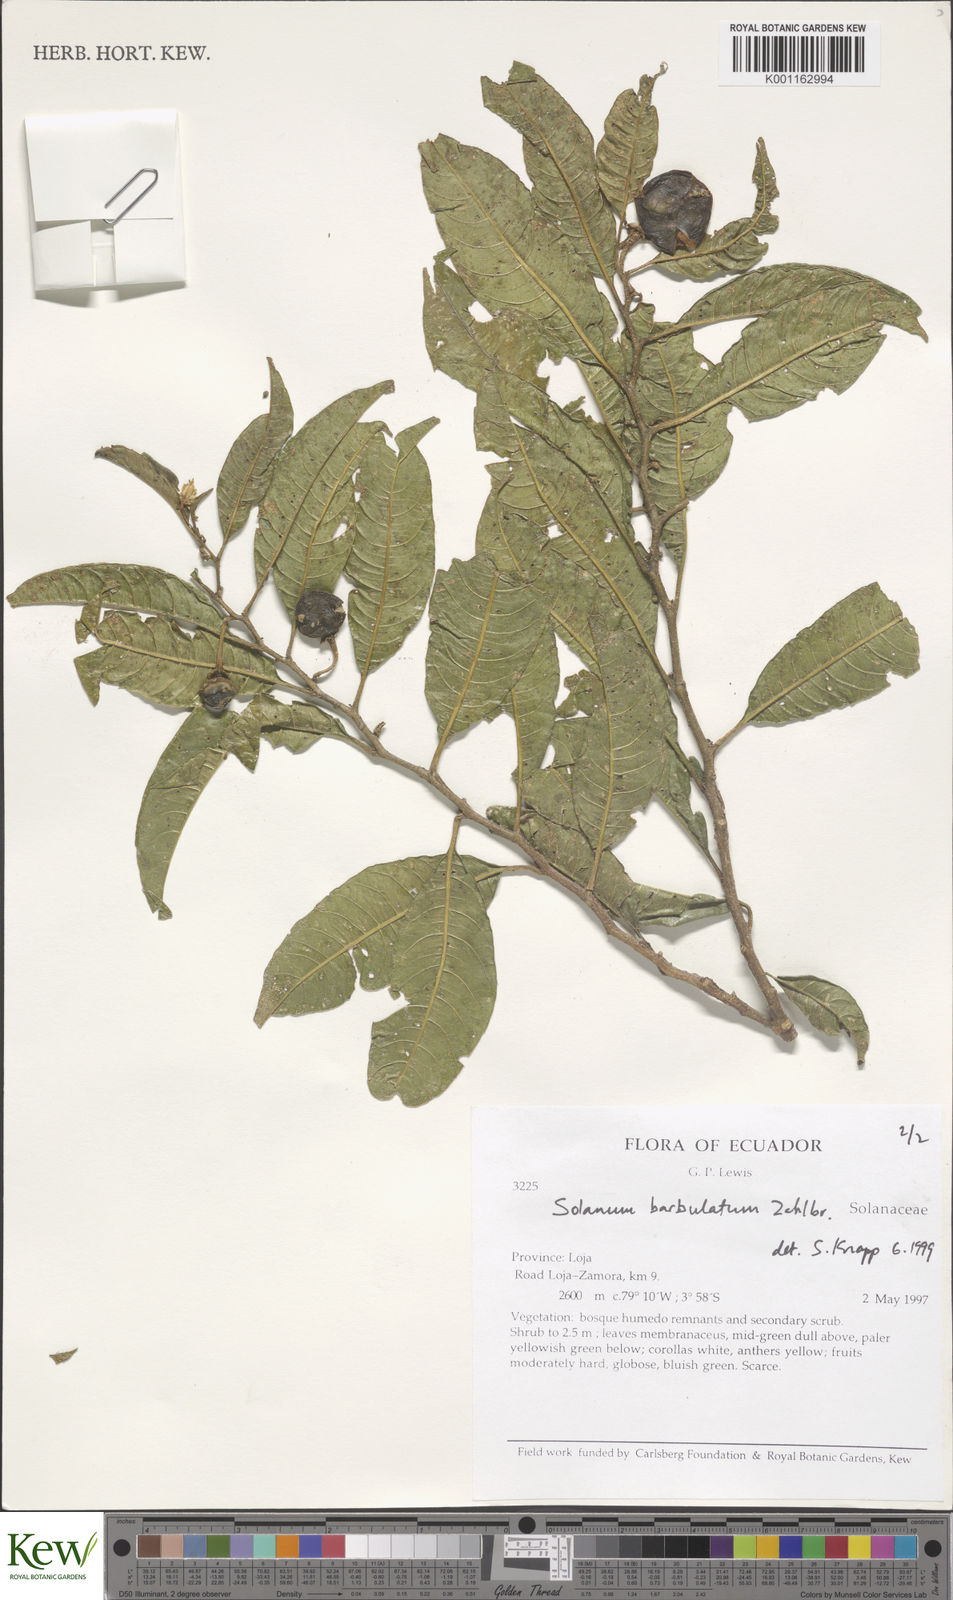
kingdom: Plantae
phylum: Tracheophyta
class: Magnoliopsida
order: Solanales
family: Solanaceae
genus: Solanum
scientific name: Solanum barbulatum
